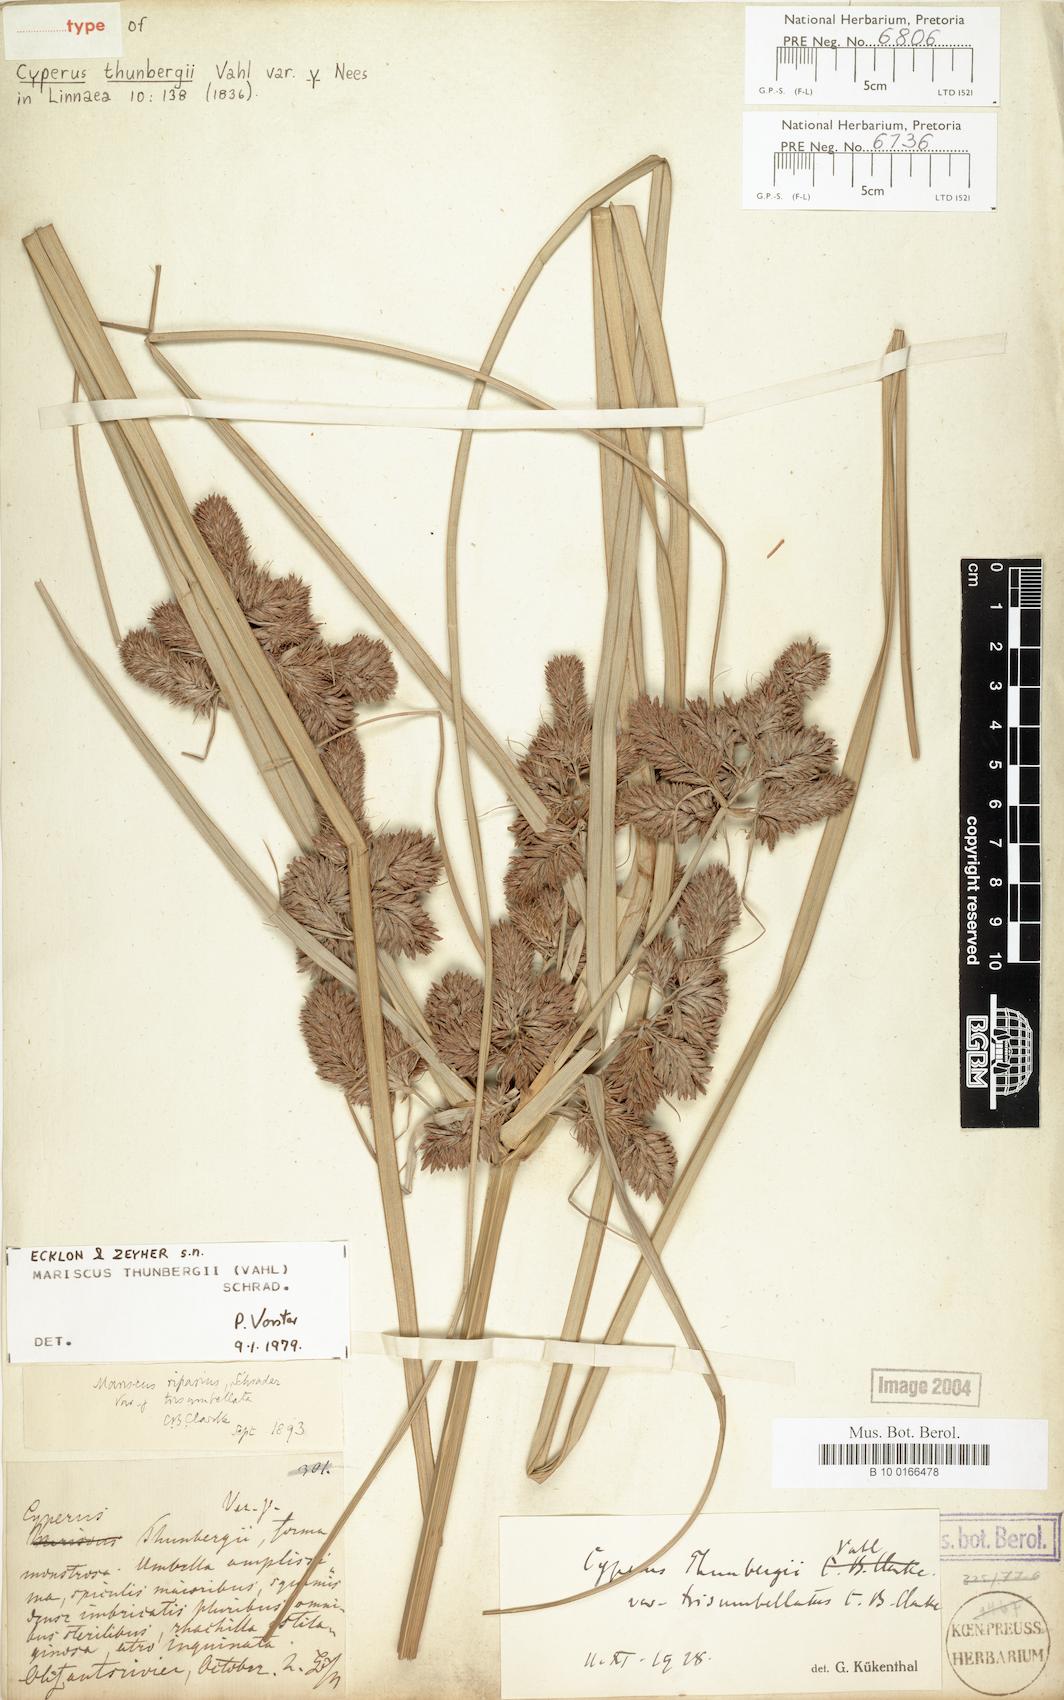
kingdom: Plantae
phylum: Tracheophyta
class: Liliopsida
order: Poales
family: Cyperaceae
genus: Cyperus
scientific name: Cyperus thunbergii
